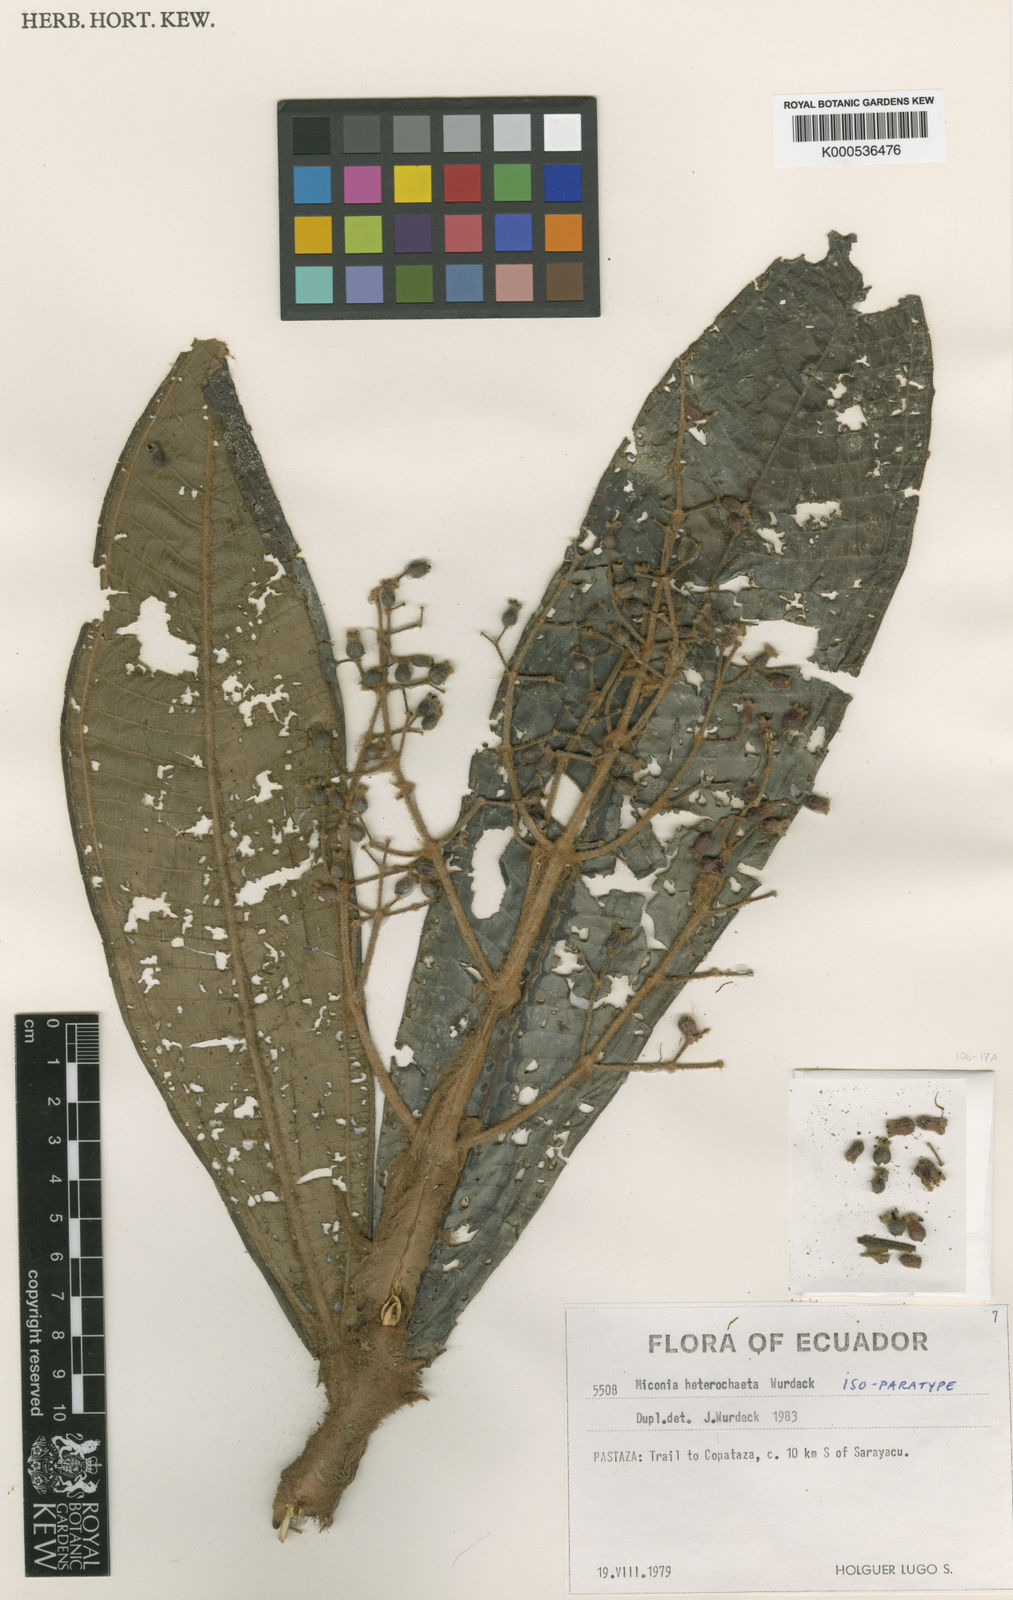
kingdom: Plantae
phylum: Tracheophyta
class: Magnoliopsida
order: Myrtales
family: Melastomataceae
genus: Miconia
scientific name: Miconia heterochaeta
